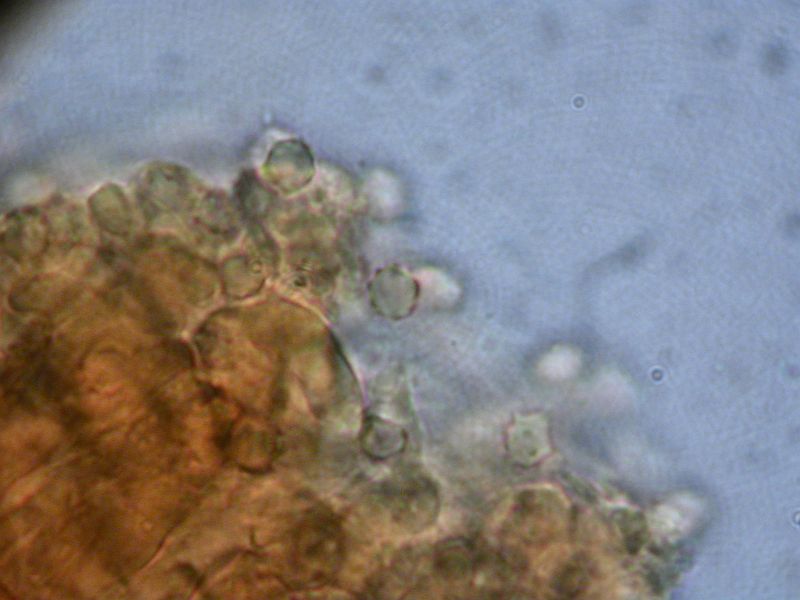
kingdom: Fungi
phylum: Basidiomycota
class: Agaricomycetes
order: Thelephorales
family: Bankeraceae
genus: Hydnellum
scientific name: Hydnellum cumulatum
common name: Rosette tooth
